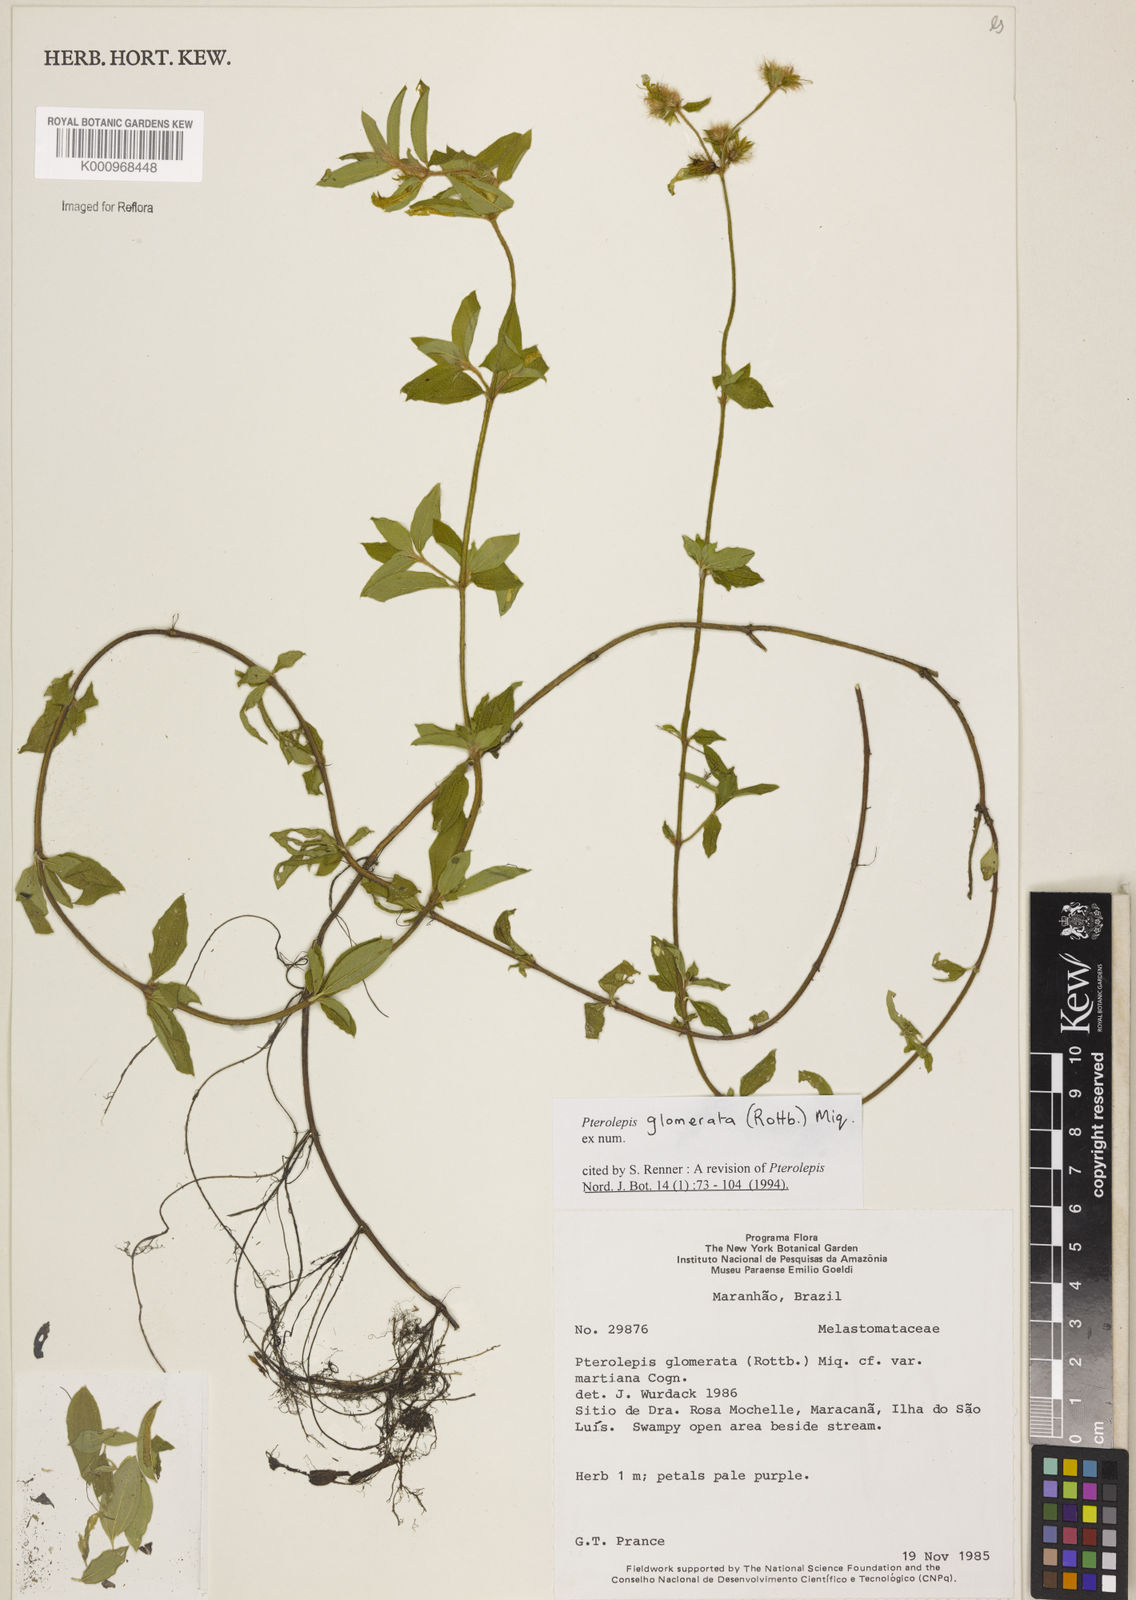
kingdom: Plantae
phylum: Tracheophyta
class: Magnoliopsida
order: Myrtales
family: Melastomataceae
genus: Pterolepis
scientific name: Pterolepis glomerata
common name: False meadowbeauty
